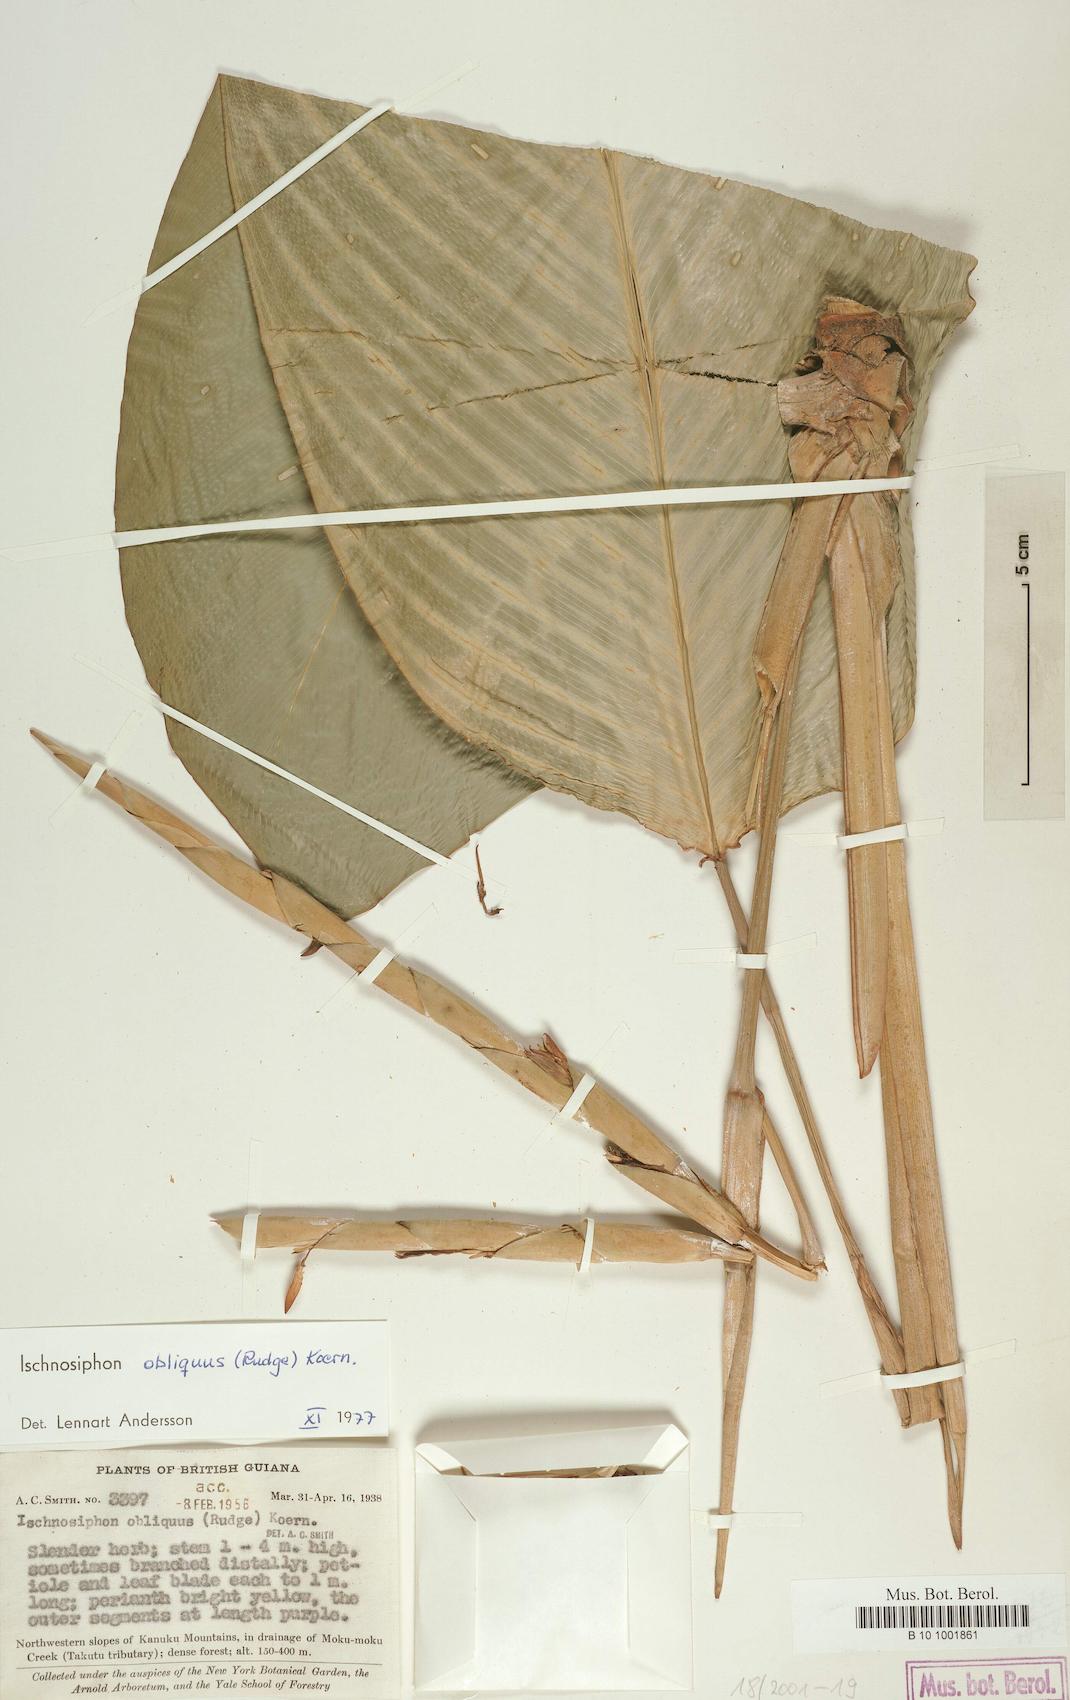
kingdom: Plantae
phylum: Tracheophyta
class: Liliopsida
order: Zingiberales
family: Marantaceae
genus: Ischnosiphon
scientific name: Ischnosiphon obliquus
